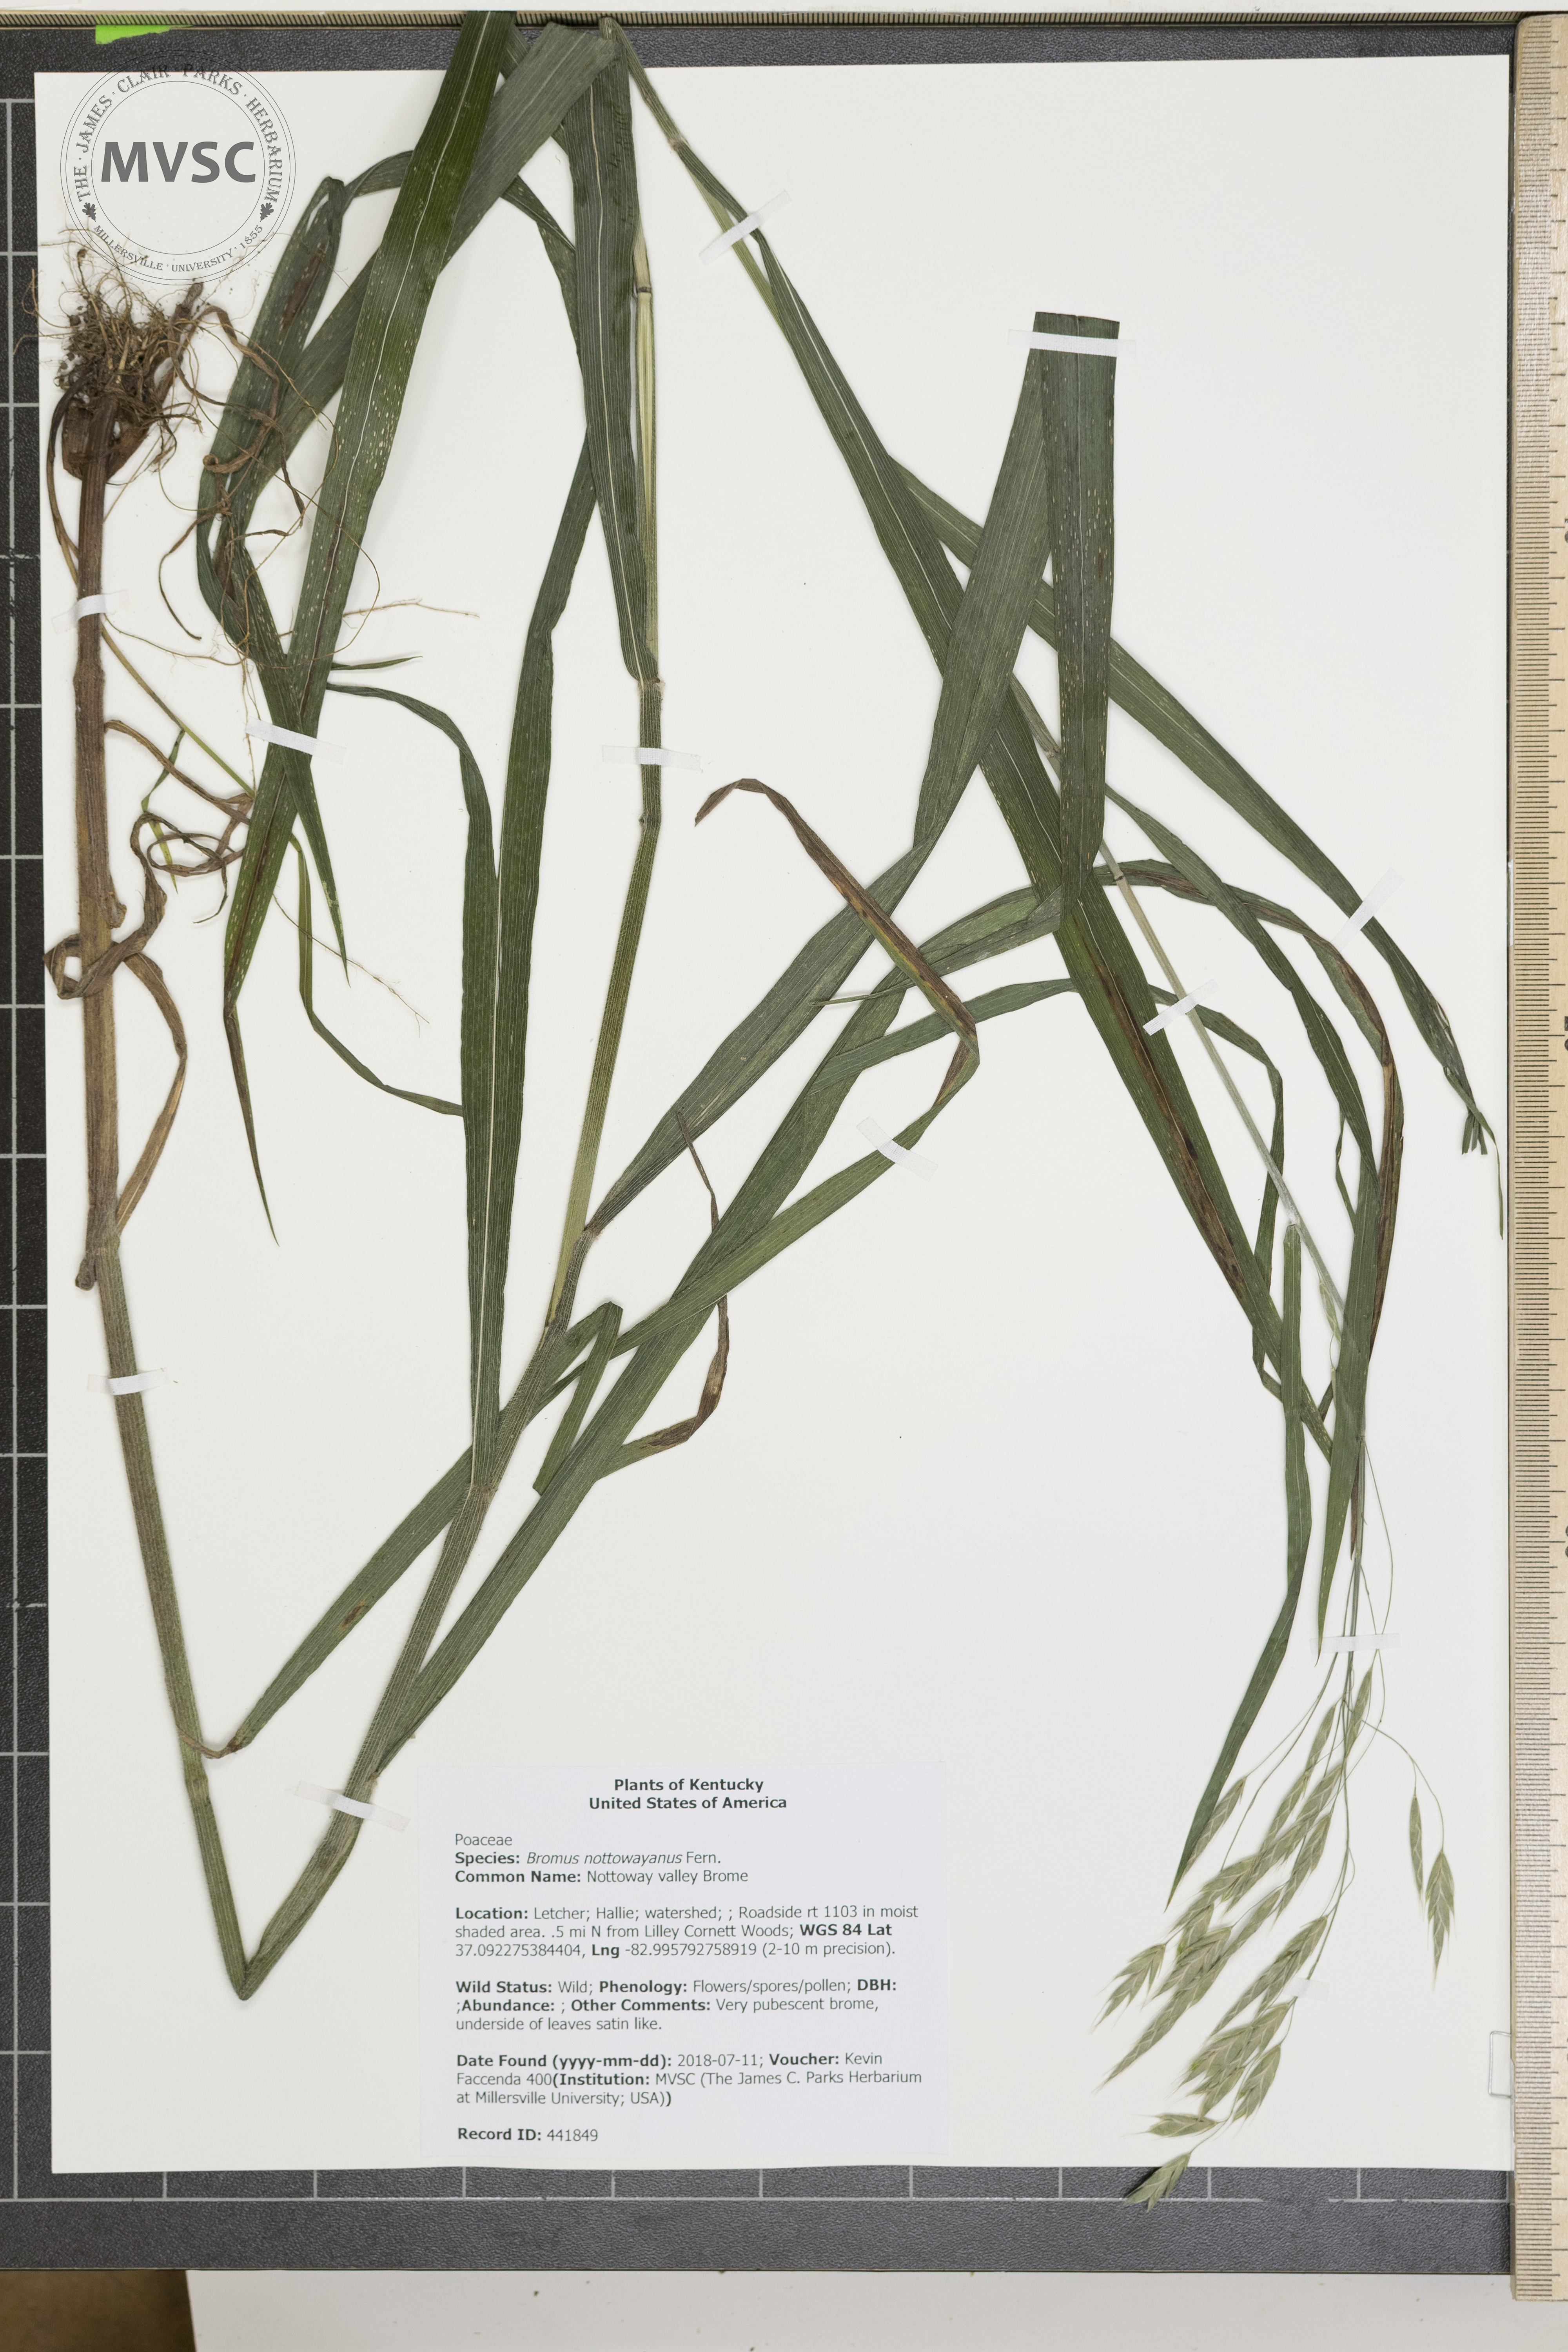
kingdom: Plantae
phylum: Tracheophyta
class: Liliopsida
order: Poales
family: Poaceae
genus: Bromus
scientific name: Bromus nottowayanus
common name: Nottoway valley Brome
